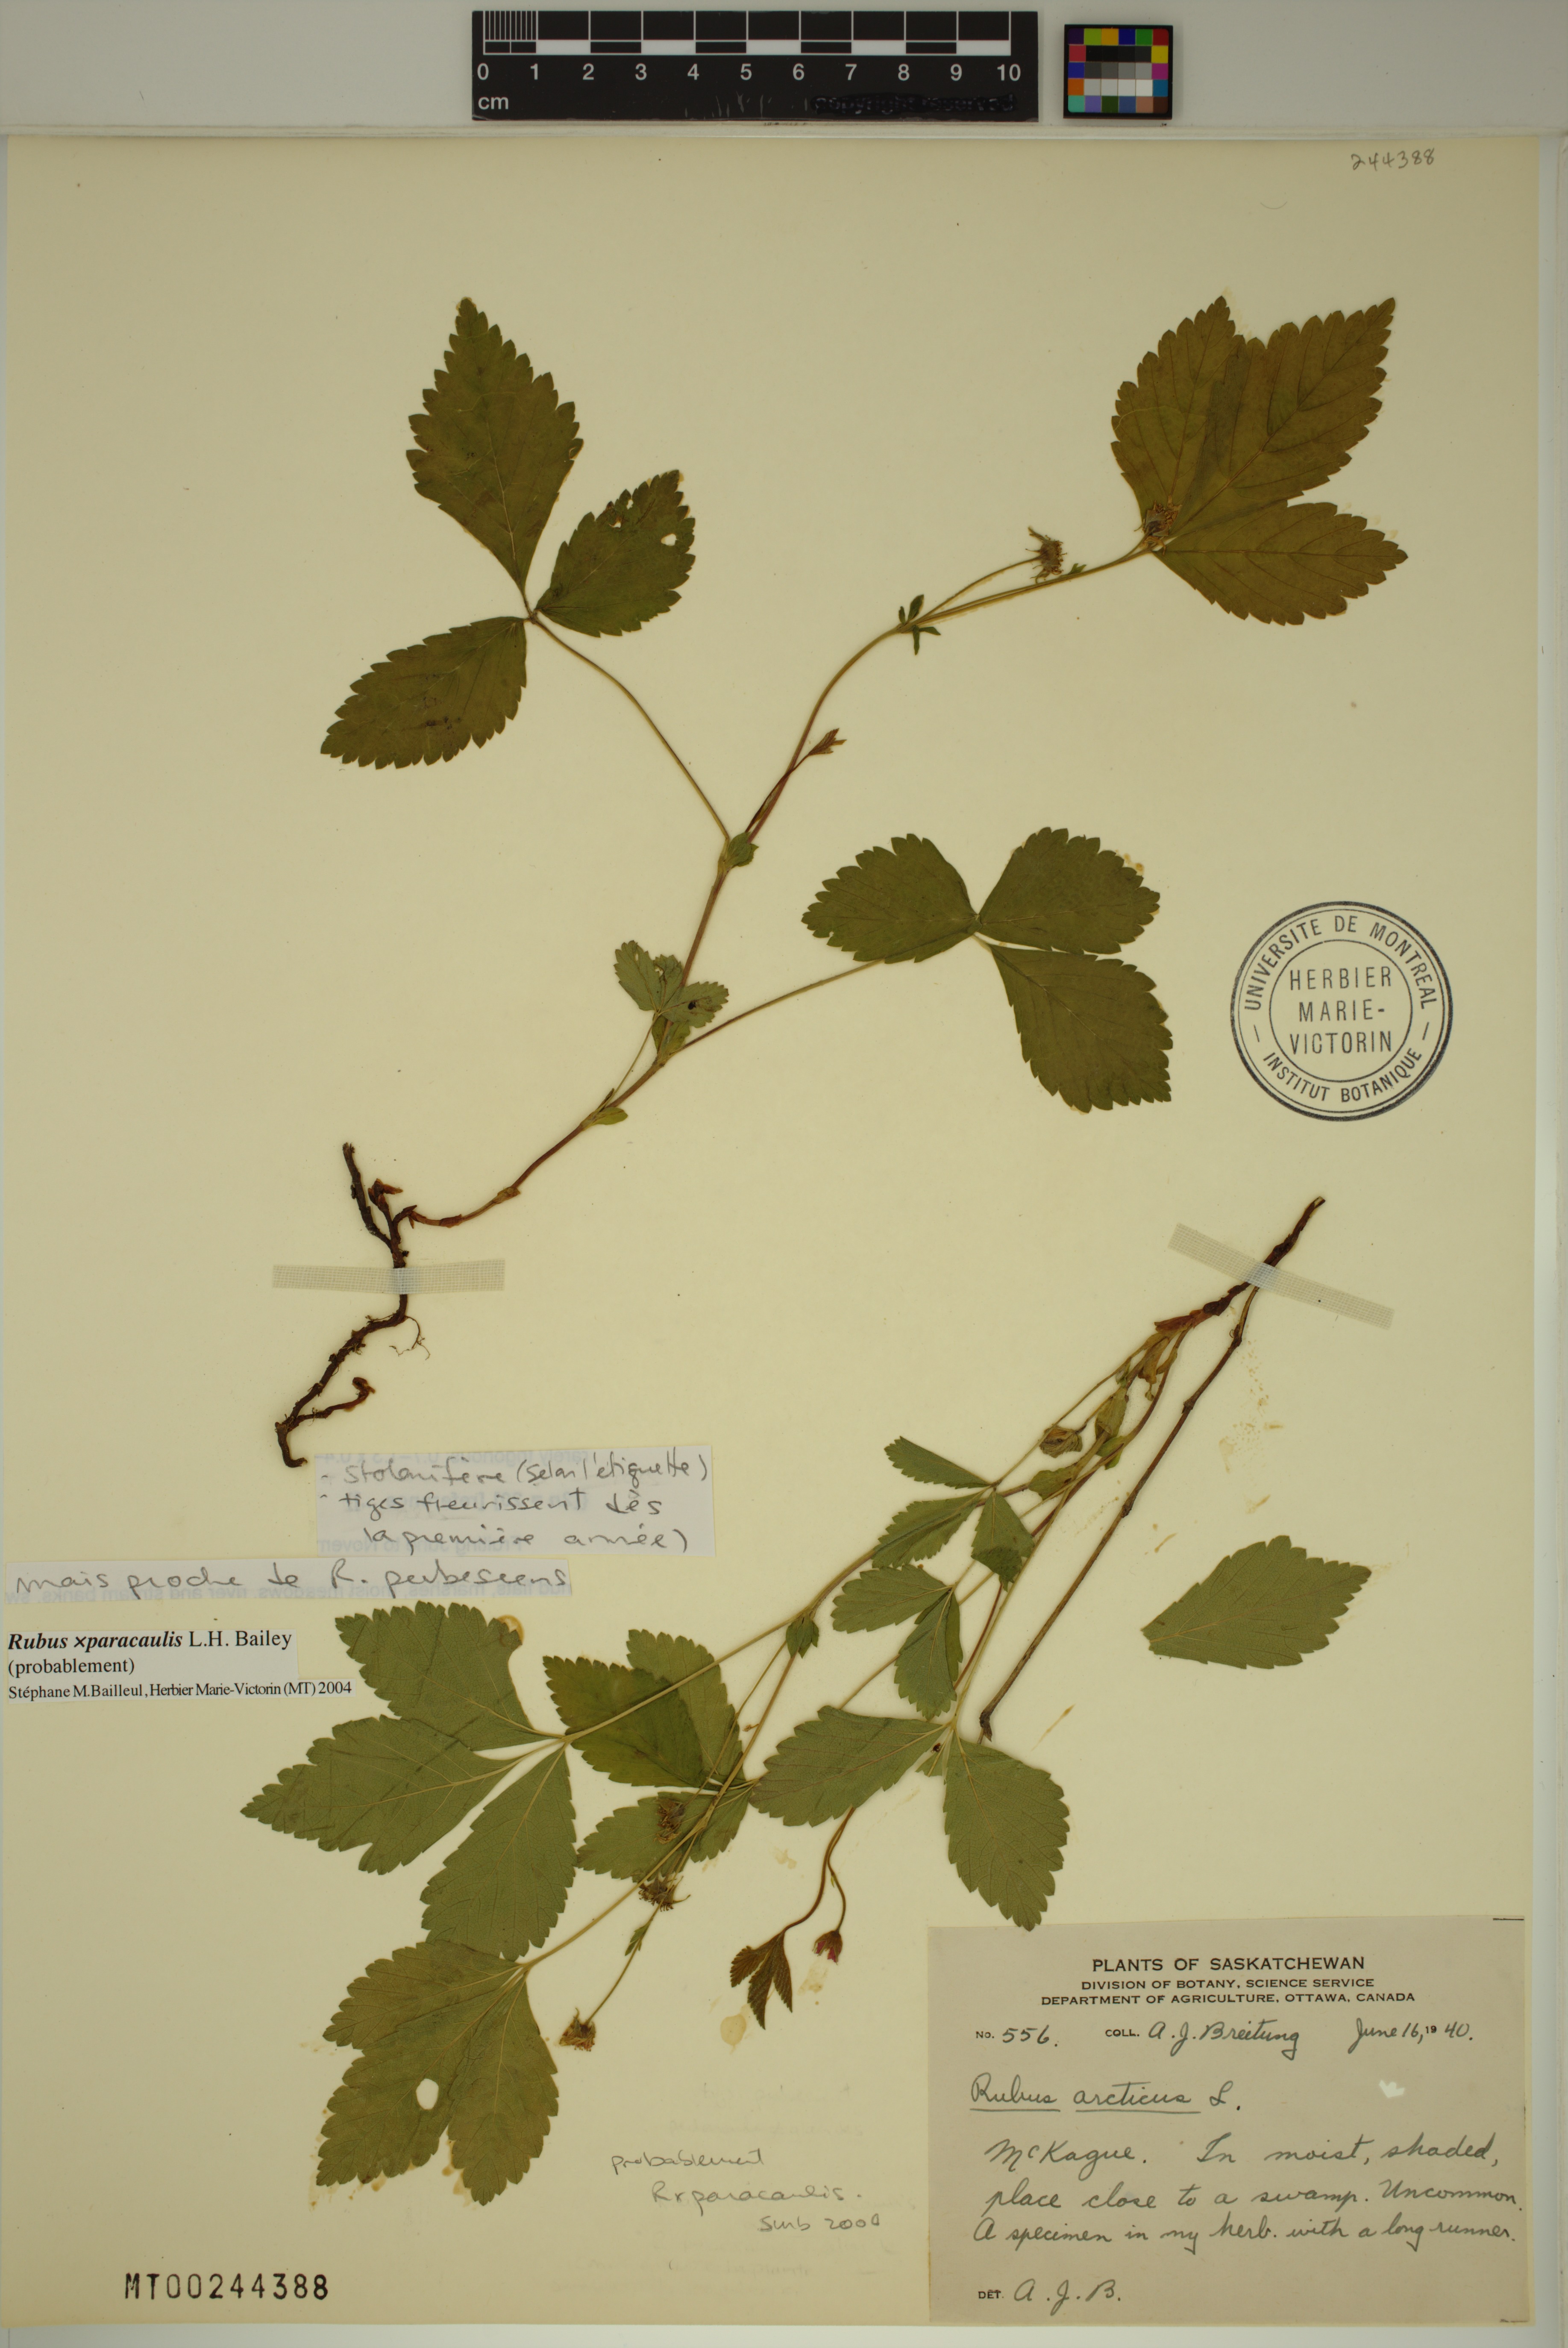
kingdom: Plantae
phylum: Tracheophyta
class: Magnoliopsida
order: Rosales
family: Rosaceae
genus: Rubus
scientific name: Rubus paracaulis
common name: Dwarf white-flowered raspberry
